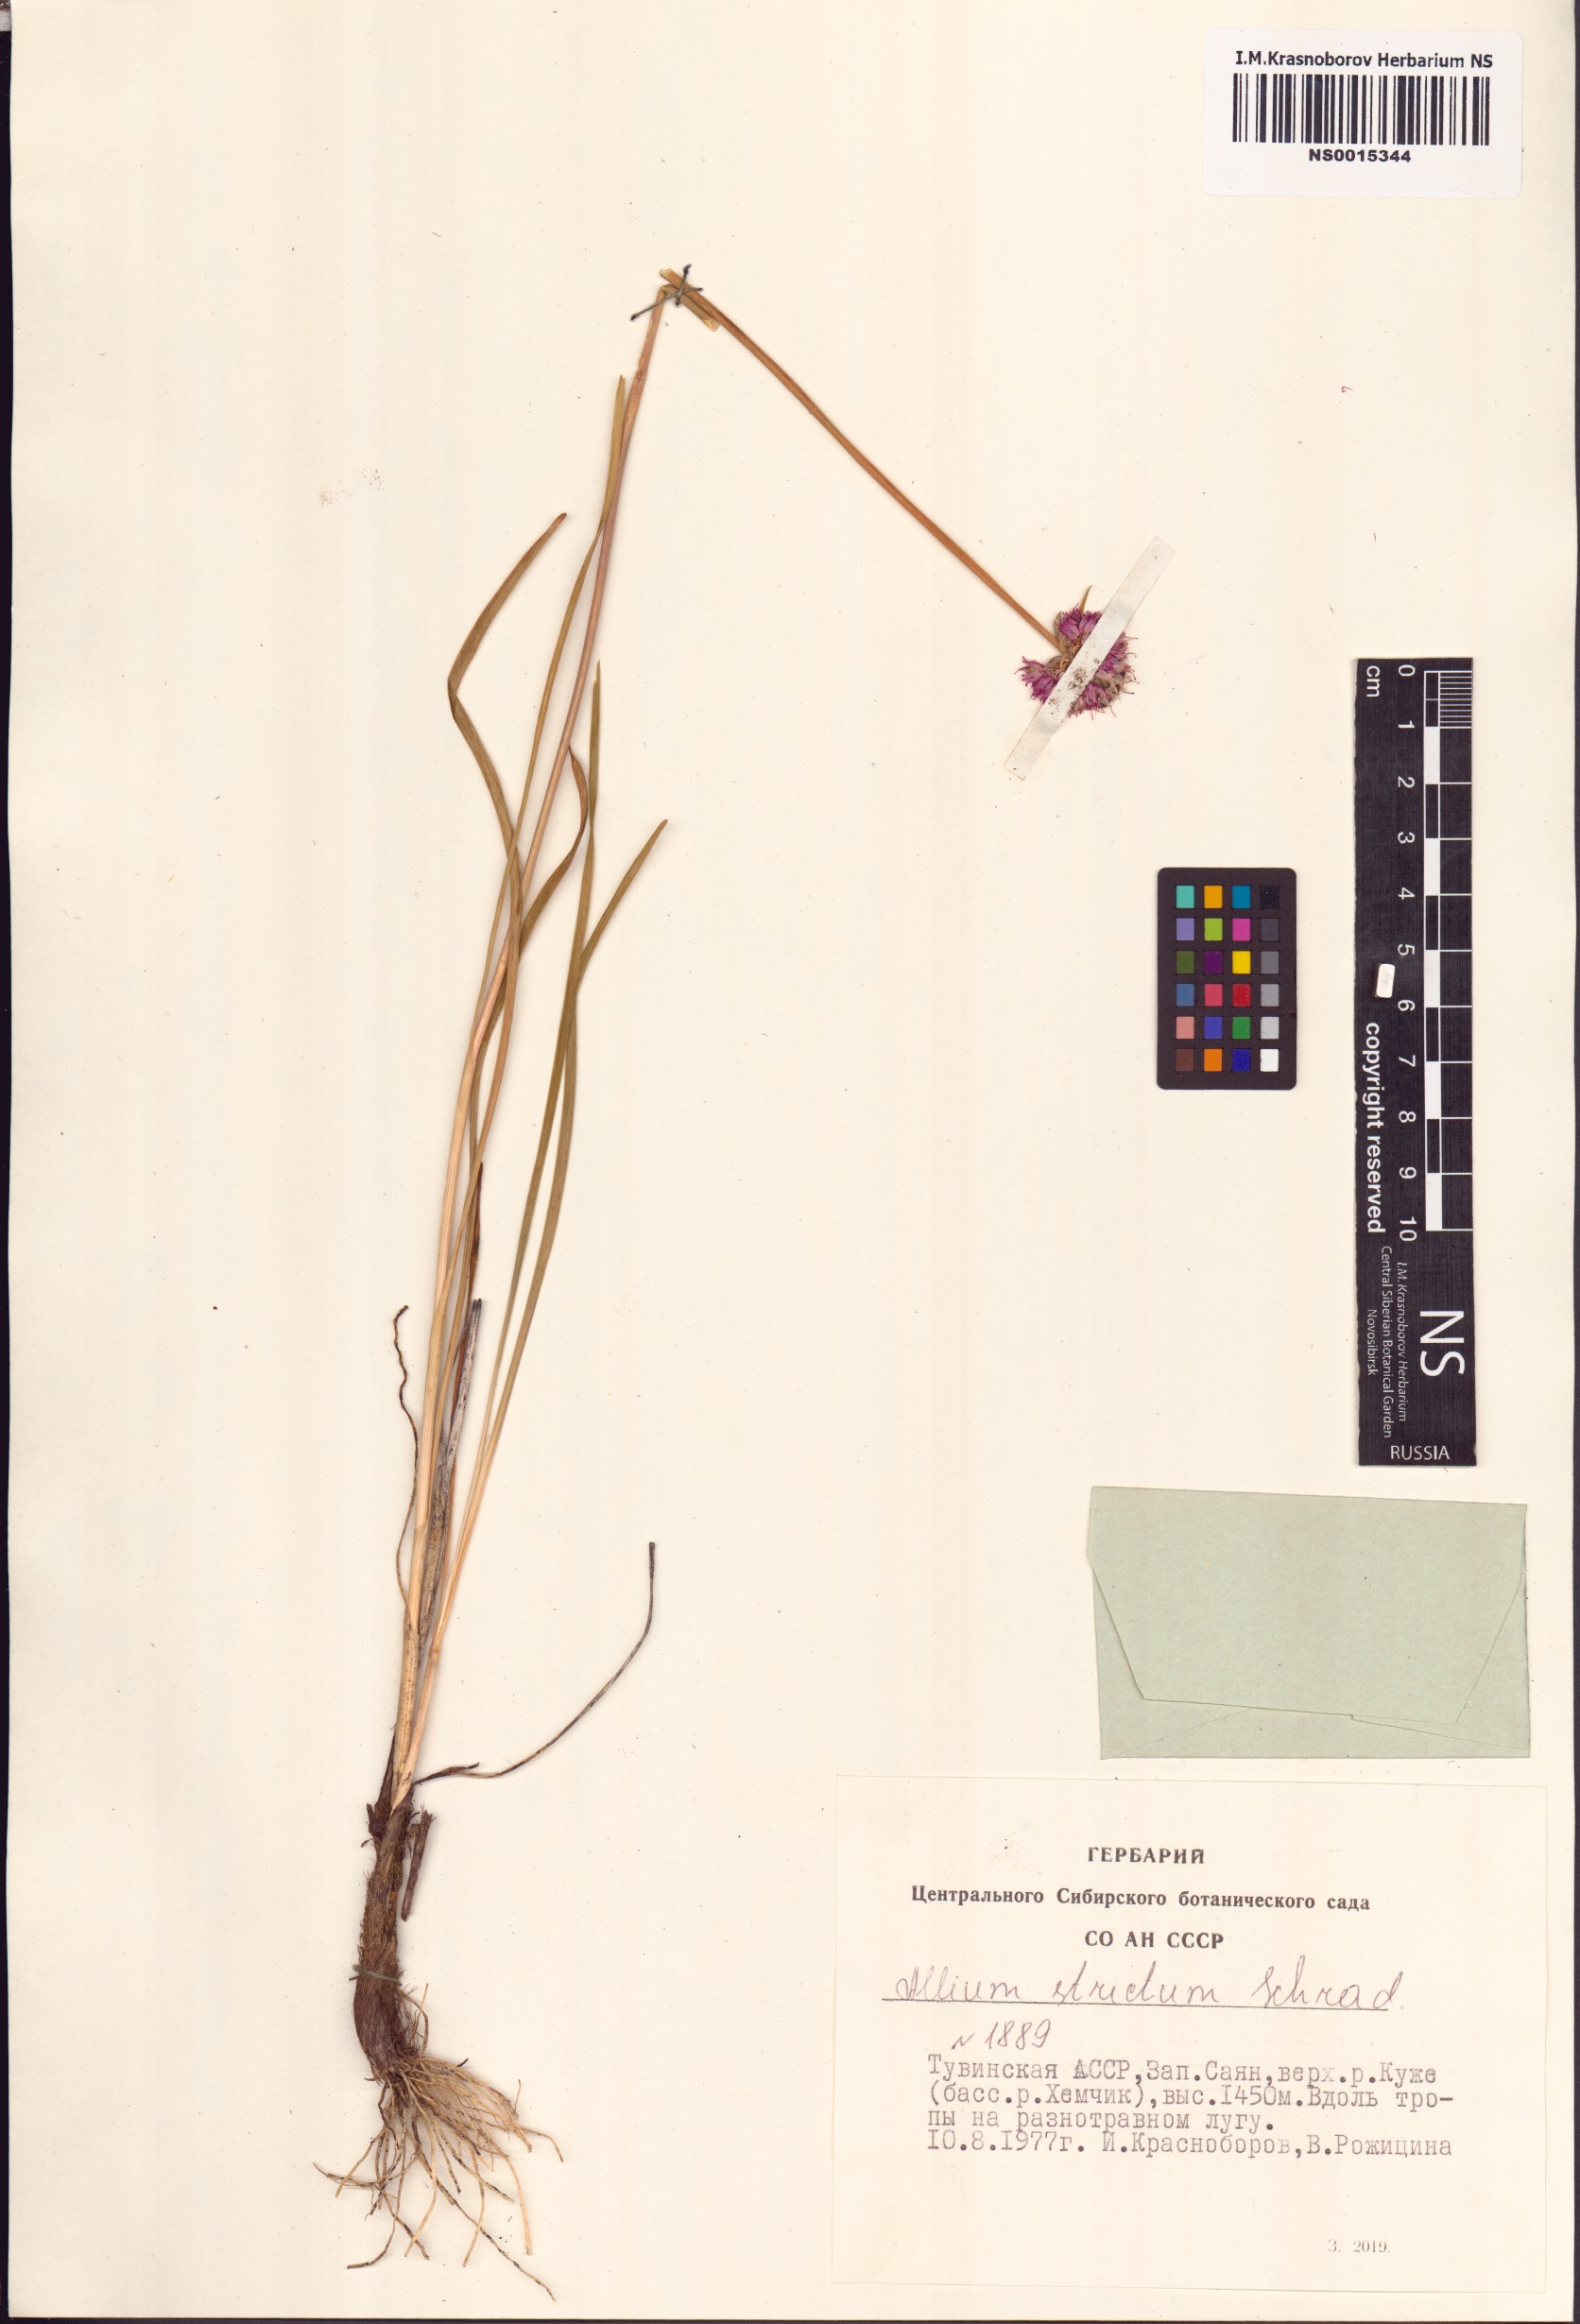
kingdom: Plantae
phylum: Tracheophyta
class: Liliopsida
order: Asparagales
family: Amaryllidaceae
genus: Allium
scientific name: Allium strictum
